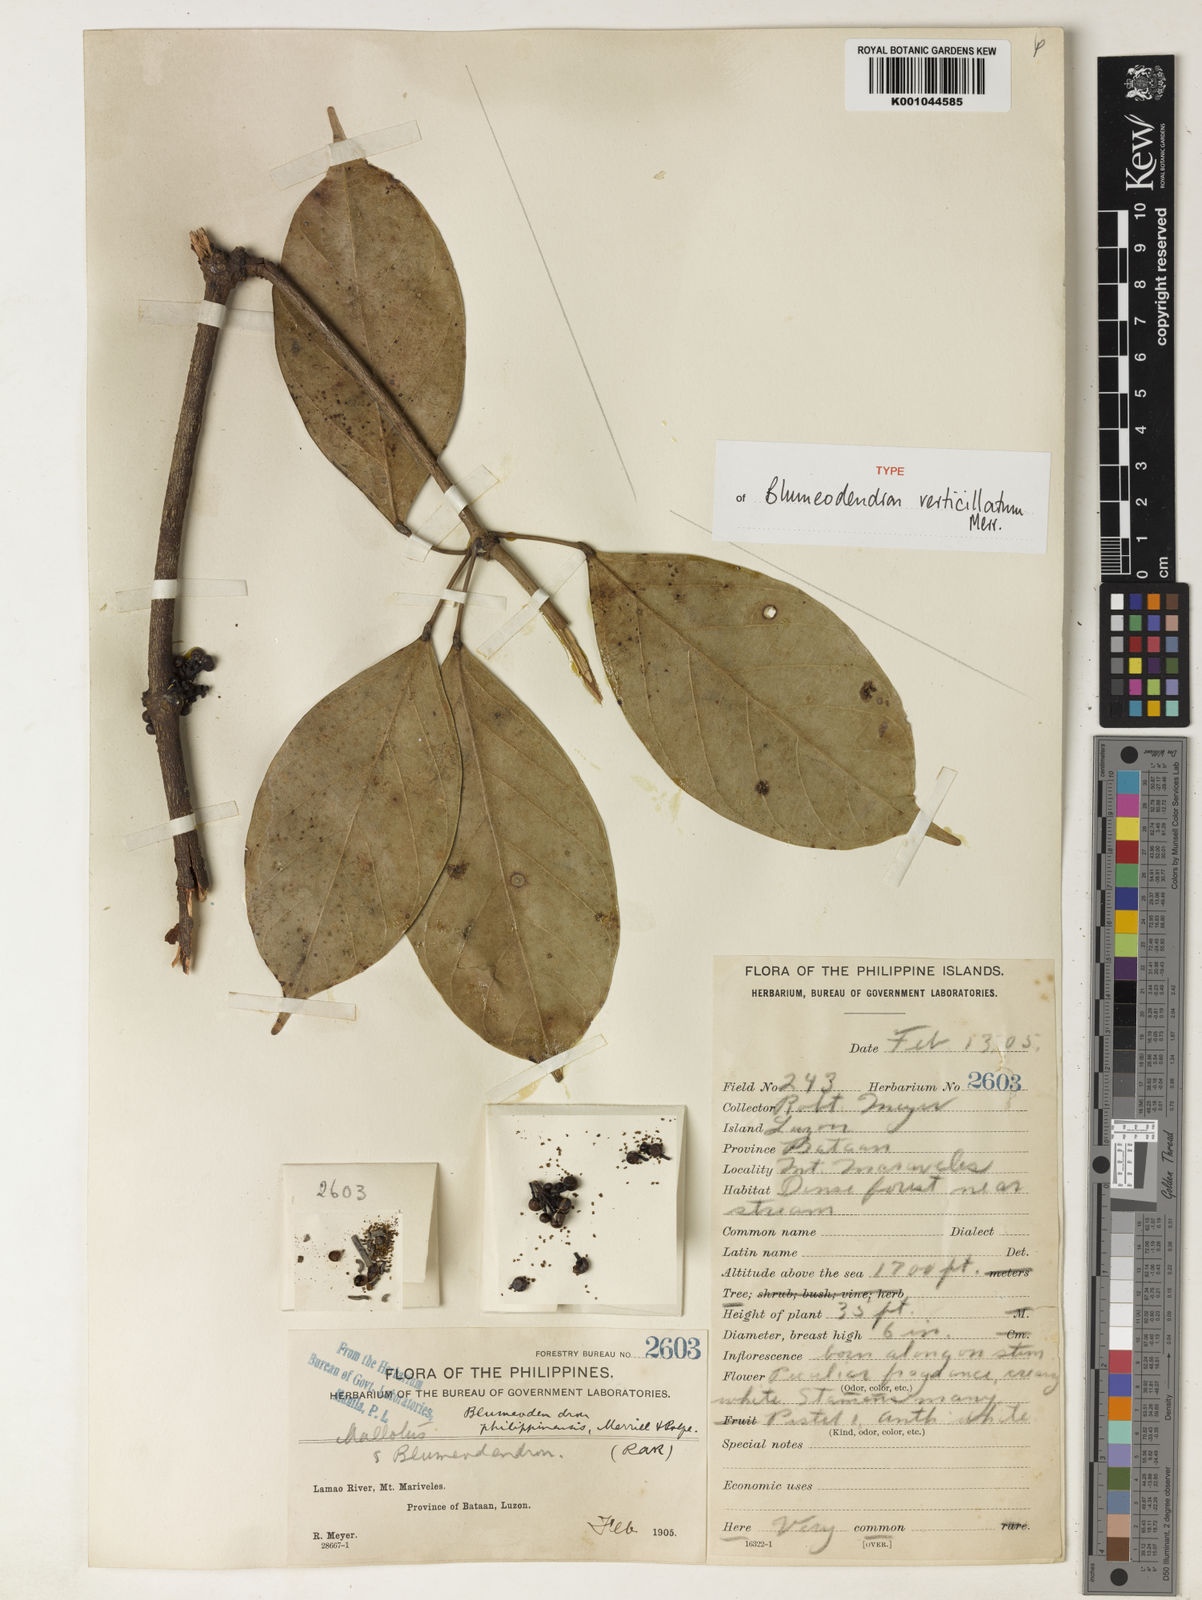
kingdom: Plantae
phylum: Tracheophyta
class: Magnoliopsida
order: Malpighiales
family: Euphorbiaceae
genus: Blumeodendron
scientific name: Blumeodendron kurzii
